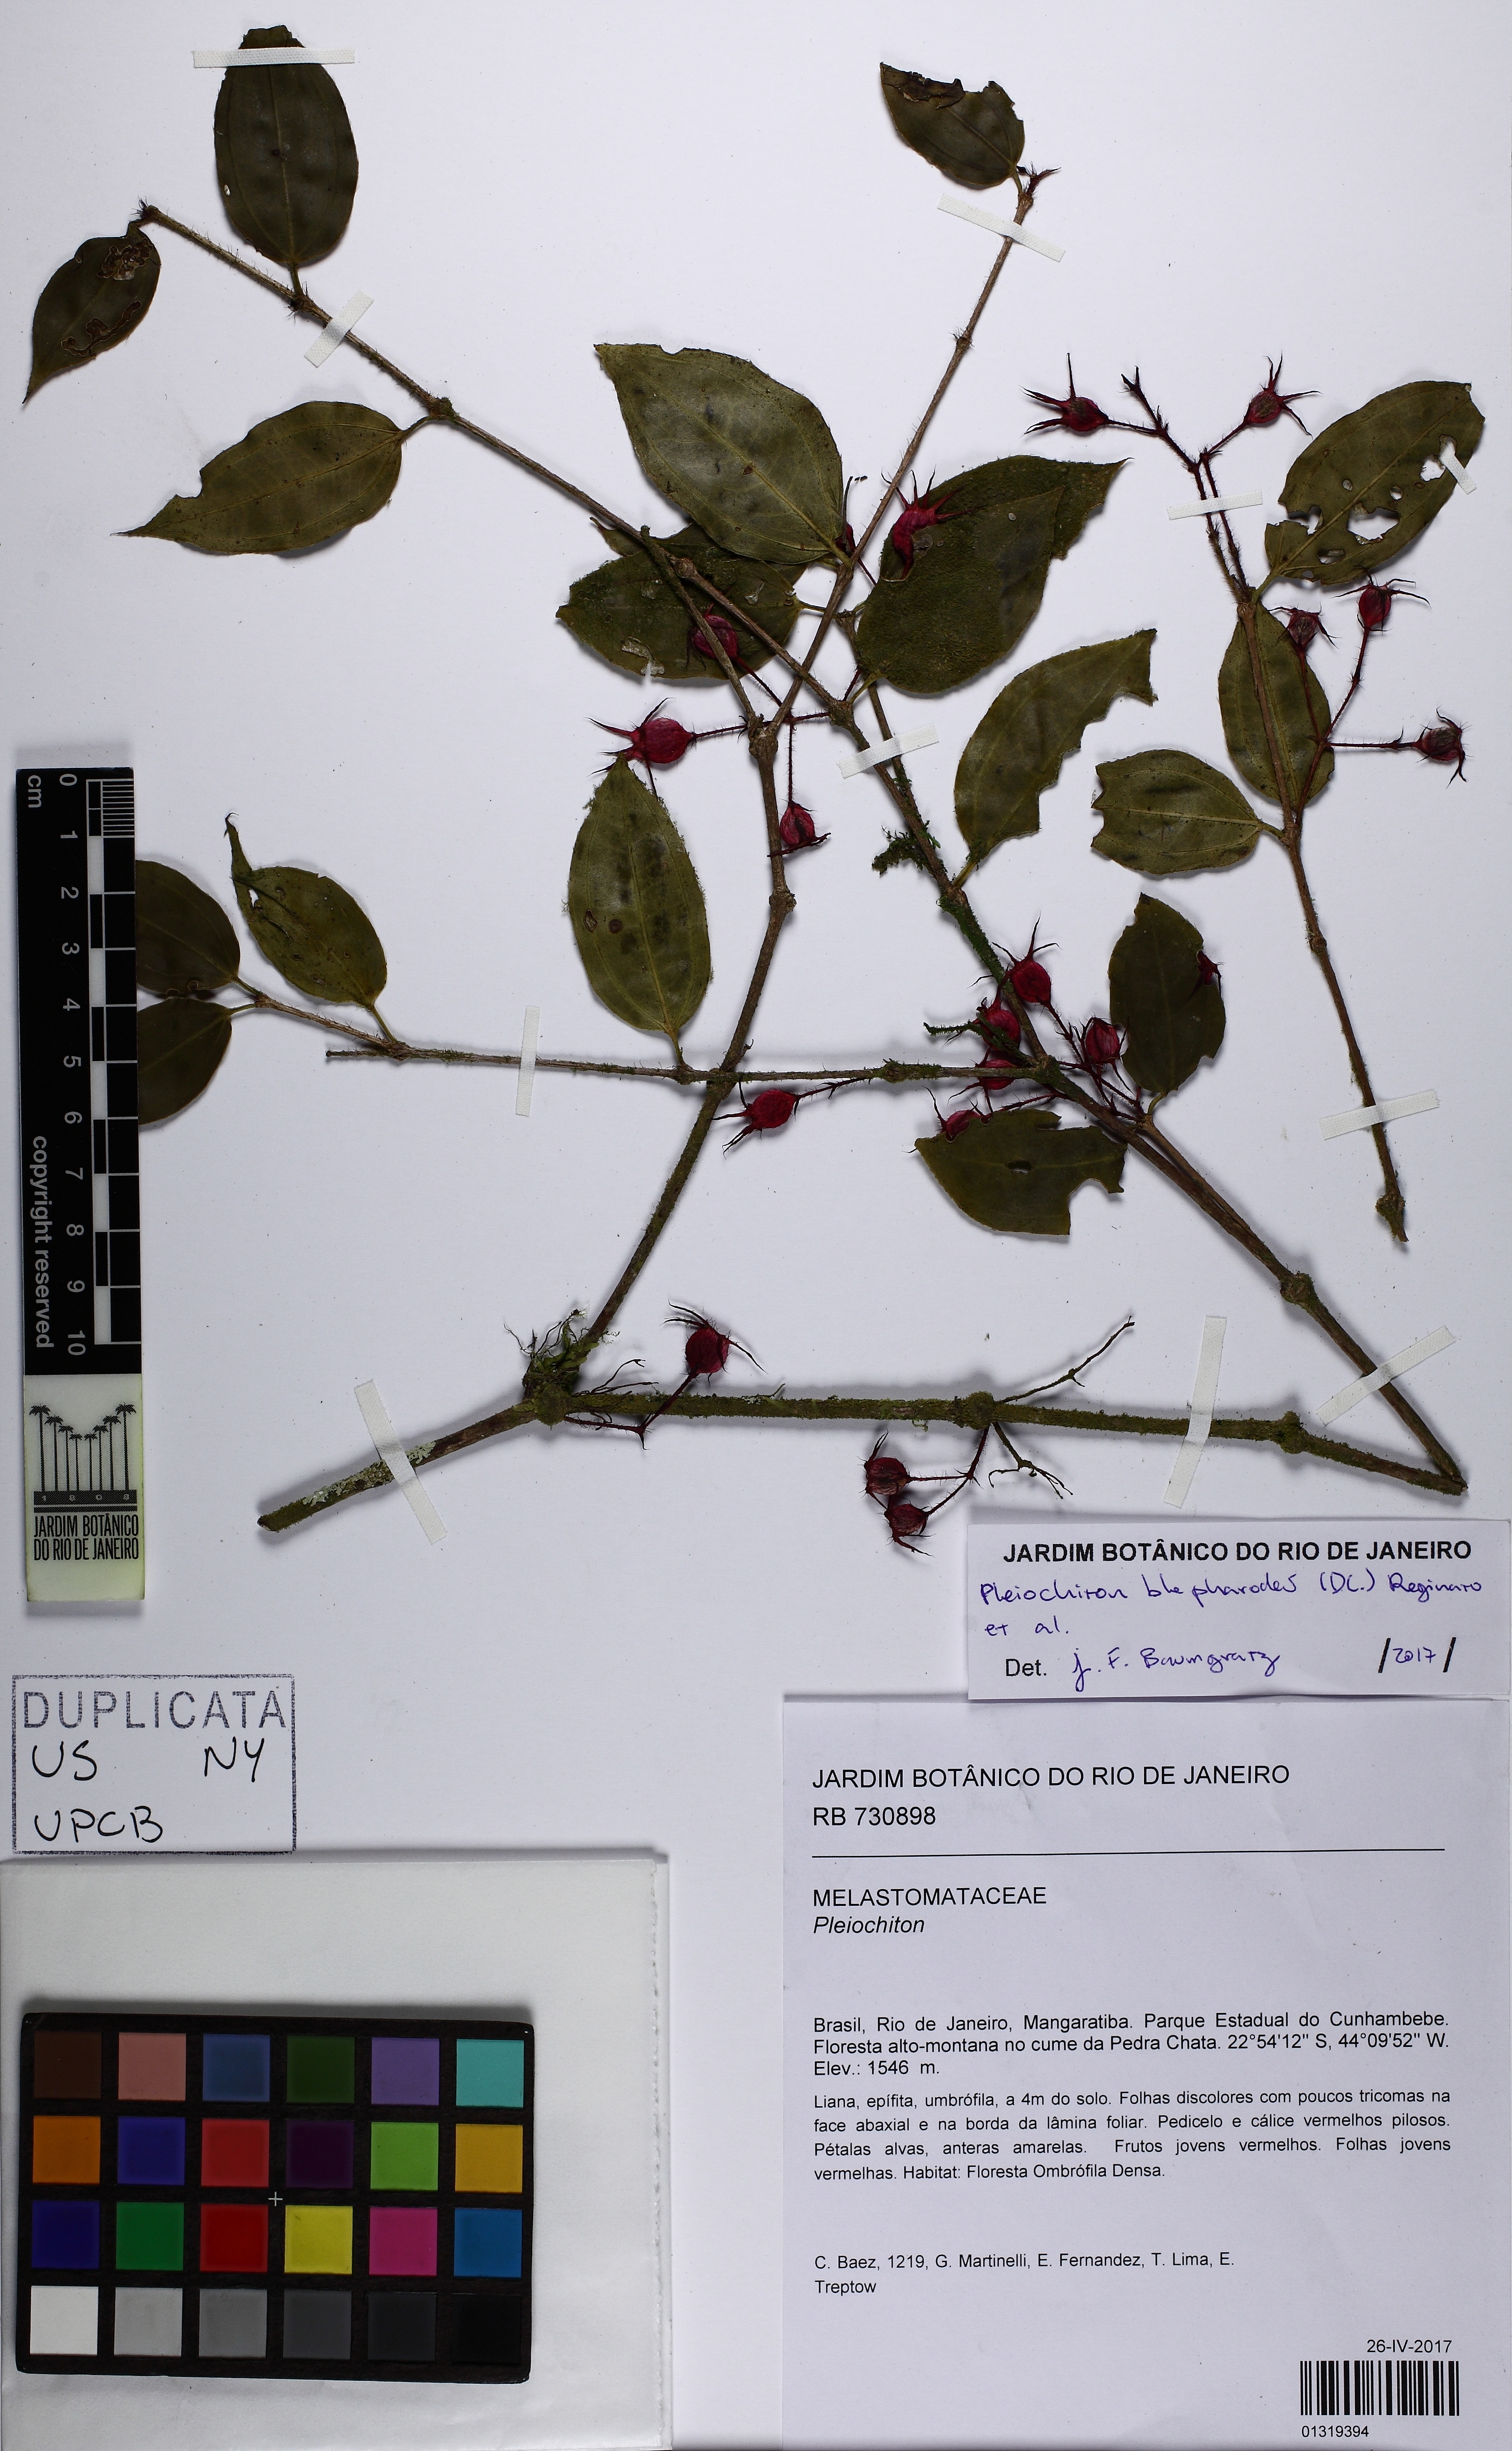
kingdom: Plantae
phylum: Tracheophyta
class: Magnoliopsida
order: Myrtales
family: Melastomataceae
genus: Miconia
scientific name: Miconia blepharodes
